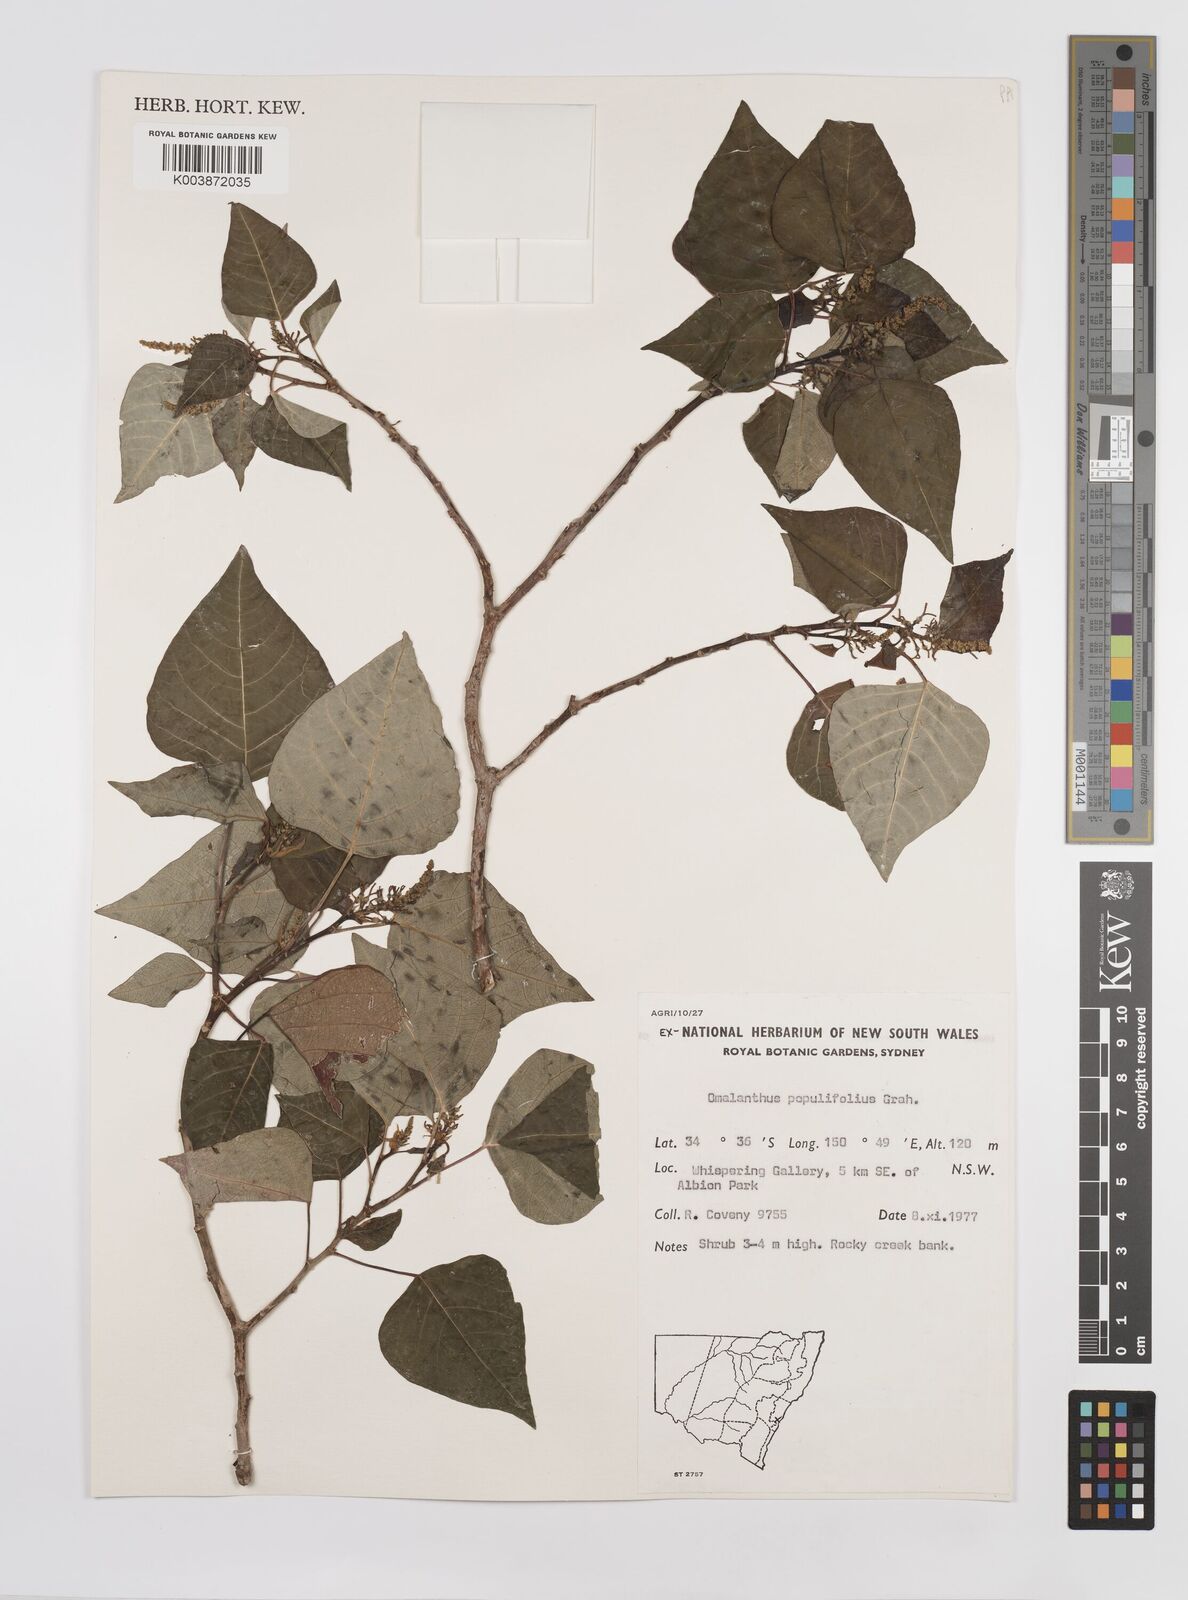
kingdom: Plantae
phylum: Tracheophyta
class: Magnoliopsida
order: Malpighiales
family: Euphorbiaceae
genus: Homalanthus
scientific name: Homalanthus populifolius
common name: Queensland poplar
